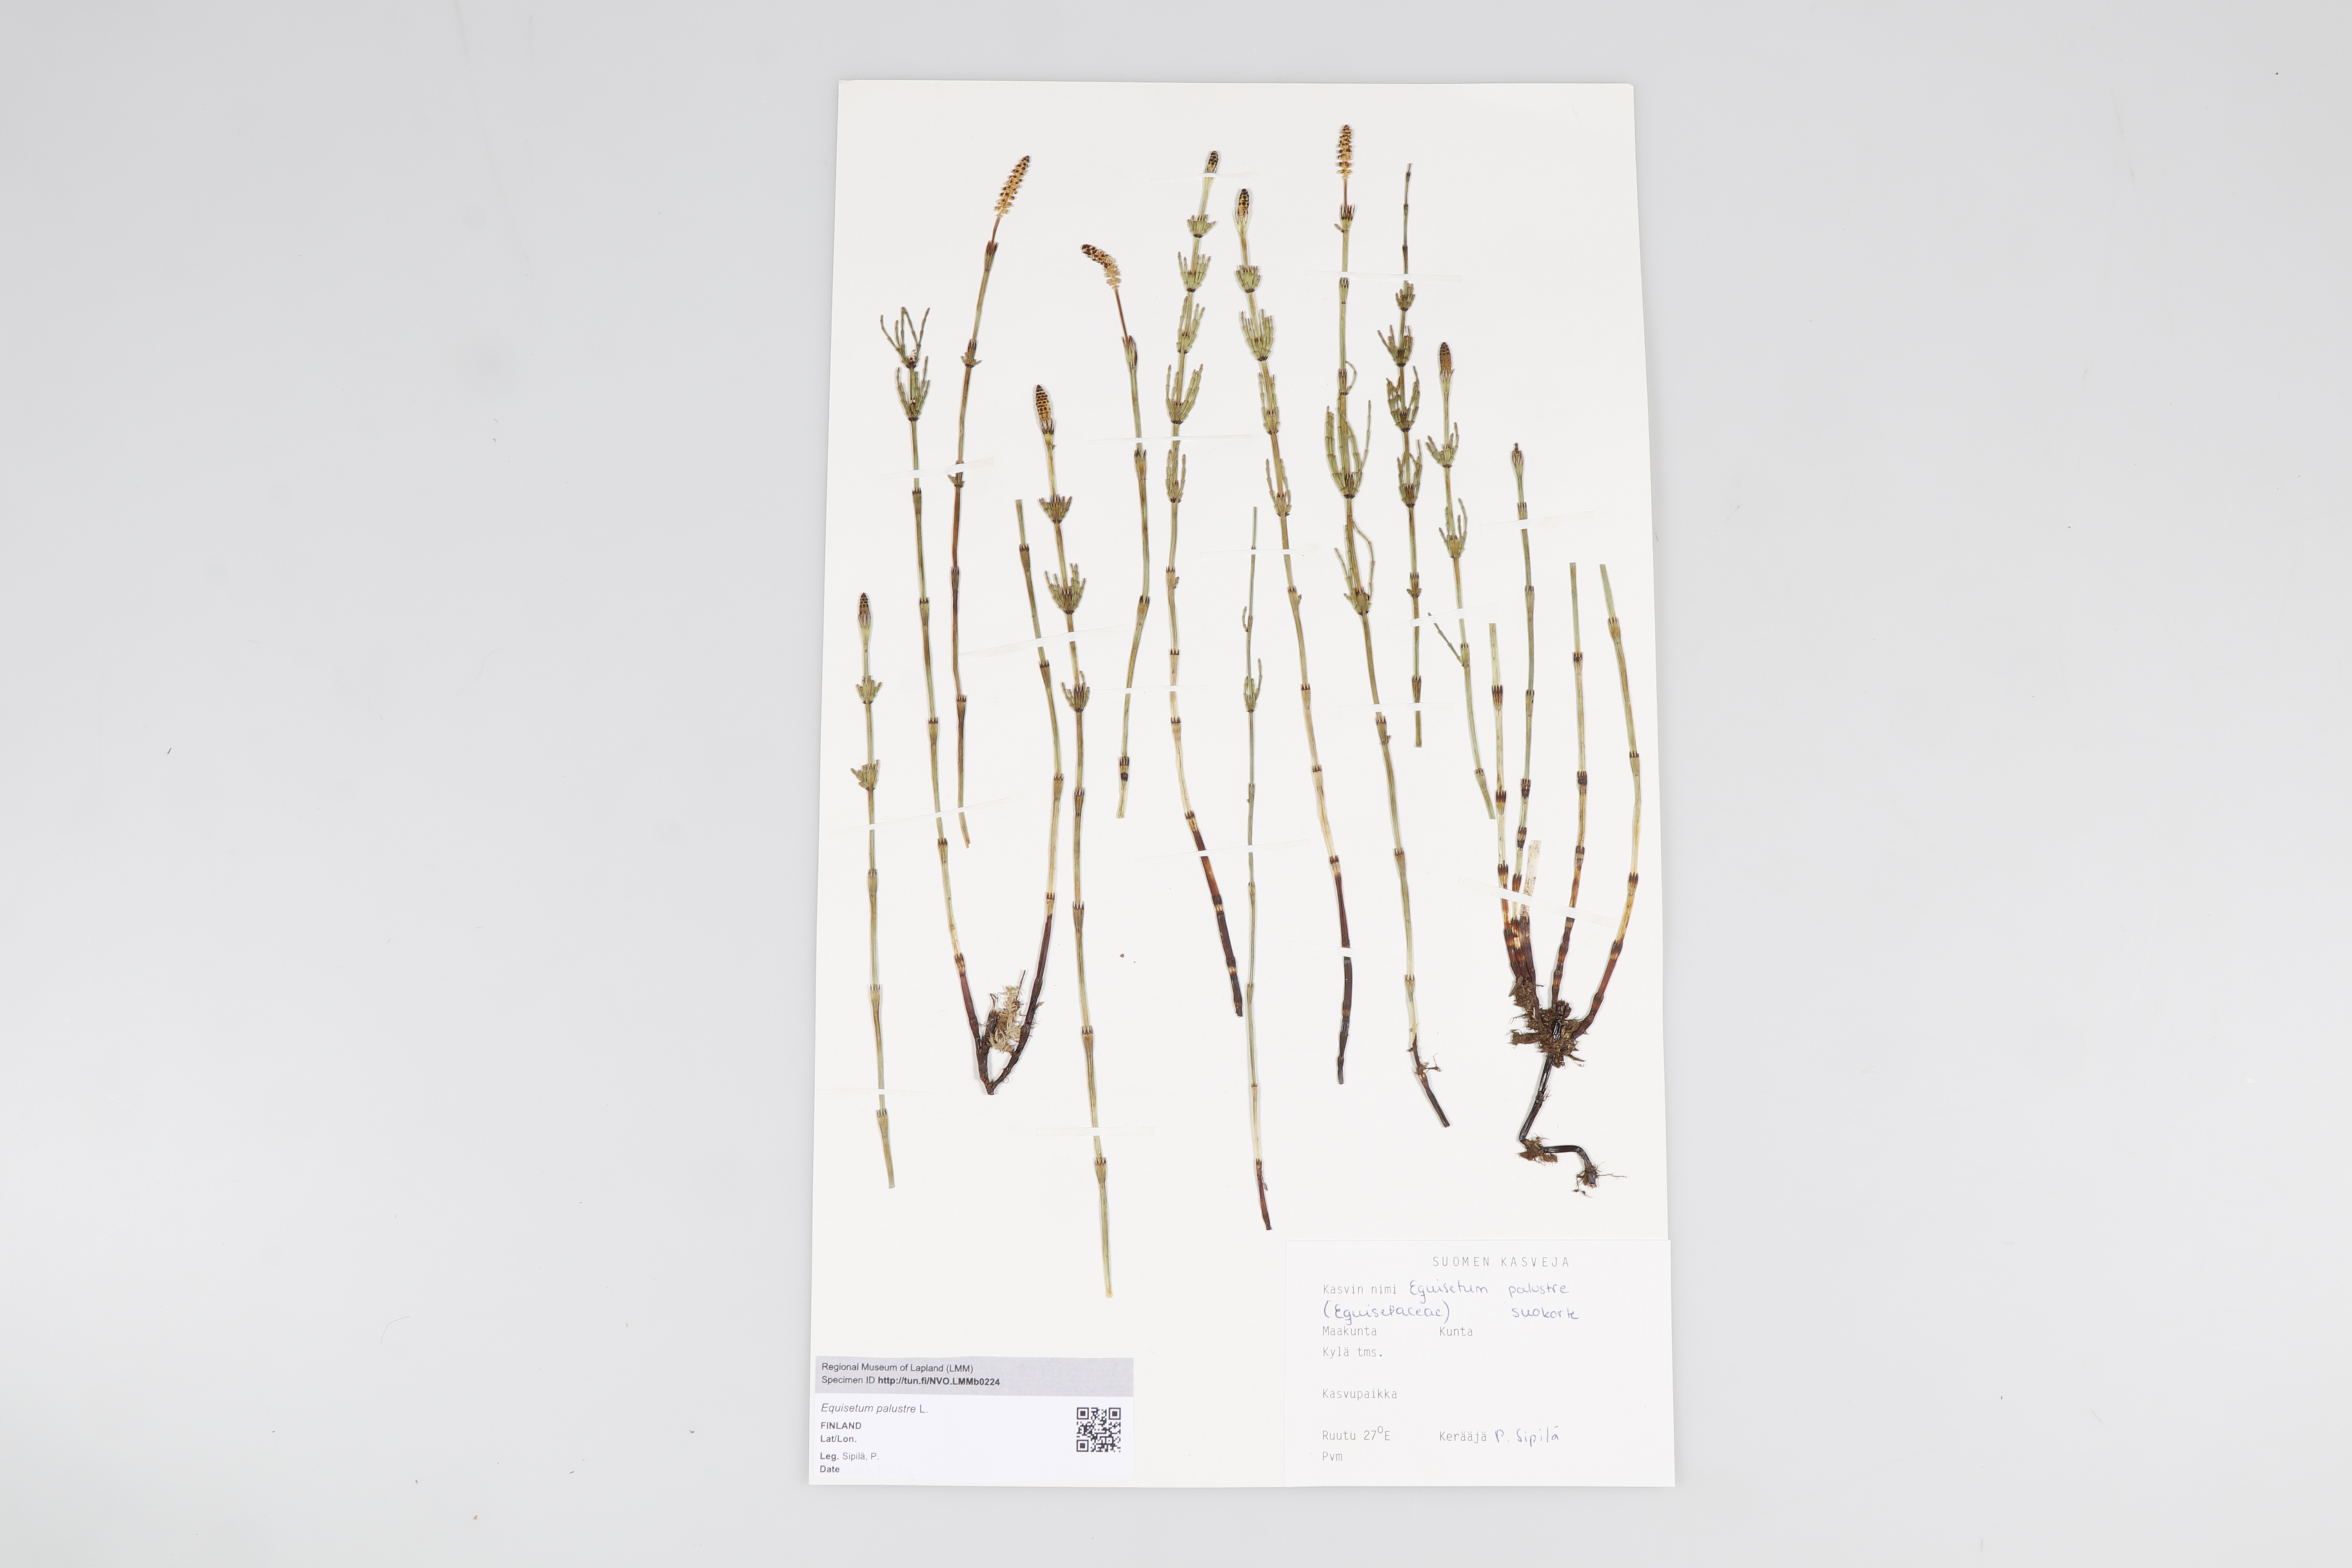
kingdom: Plantae
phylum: Tracheophyta
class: Polypodiopsida
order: Equisetales
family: Equisetaceae
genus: Equisetum
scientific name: Equisetum palustre
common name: Marsh horsetail
